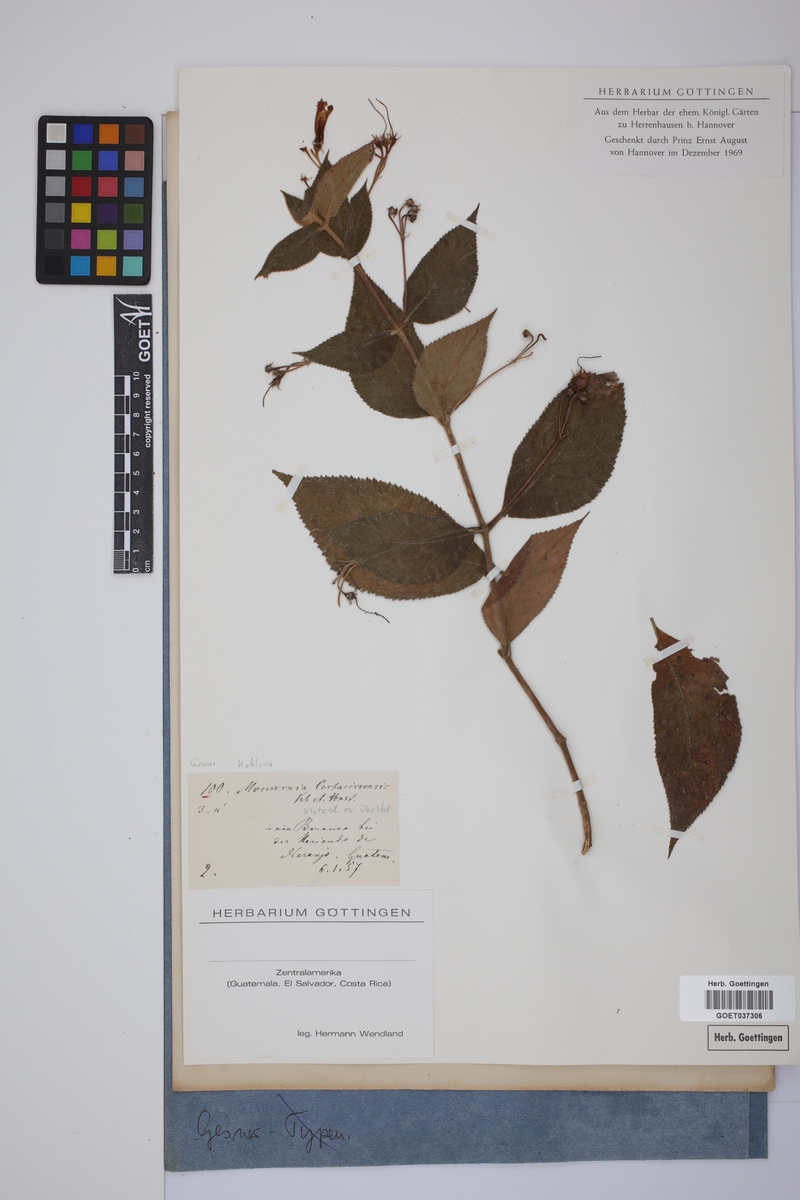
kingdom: Plantae
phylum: Tracheophyta
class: Magnoliopsida
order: Lamiales
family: Gesneriaceae
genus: Moussonia
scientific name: Moussonia deppeana
